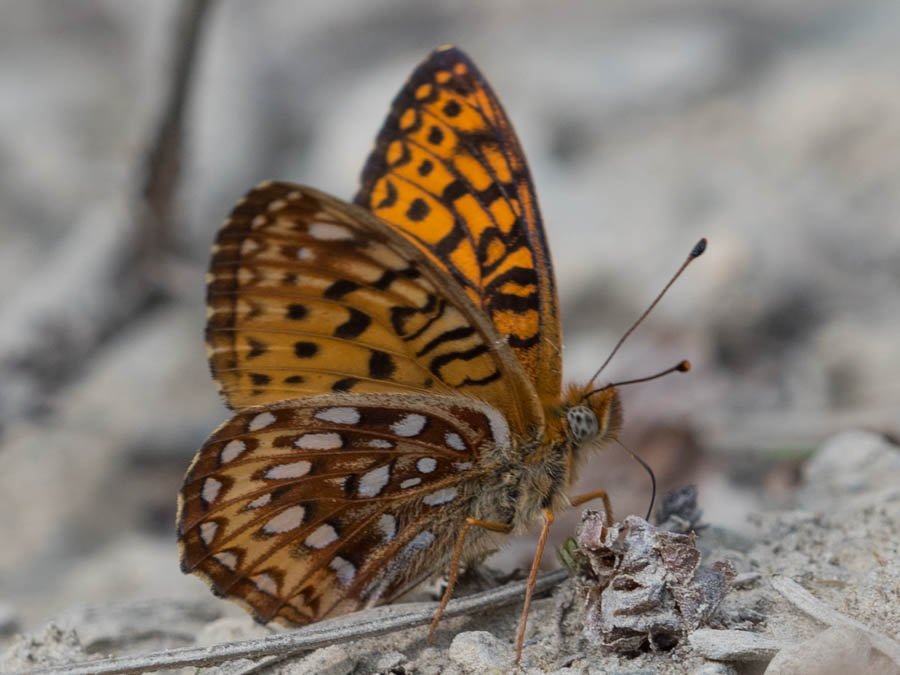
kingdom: Animalia
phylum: Arthropoda
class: Insecta
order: Lepidoptera
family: Nymphalidae
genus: Boloria
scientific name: Boloria chariclea
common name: Arctic Fritillary
